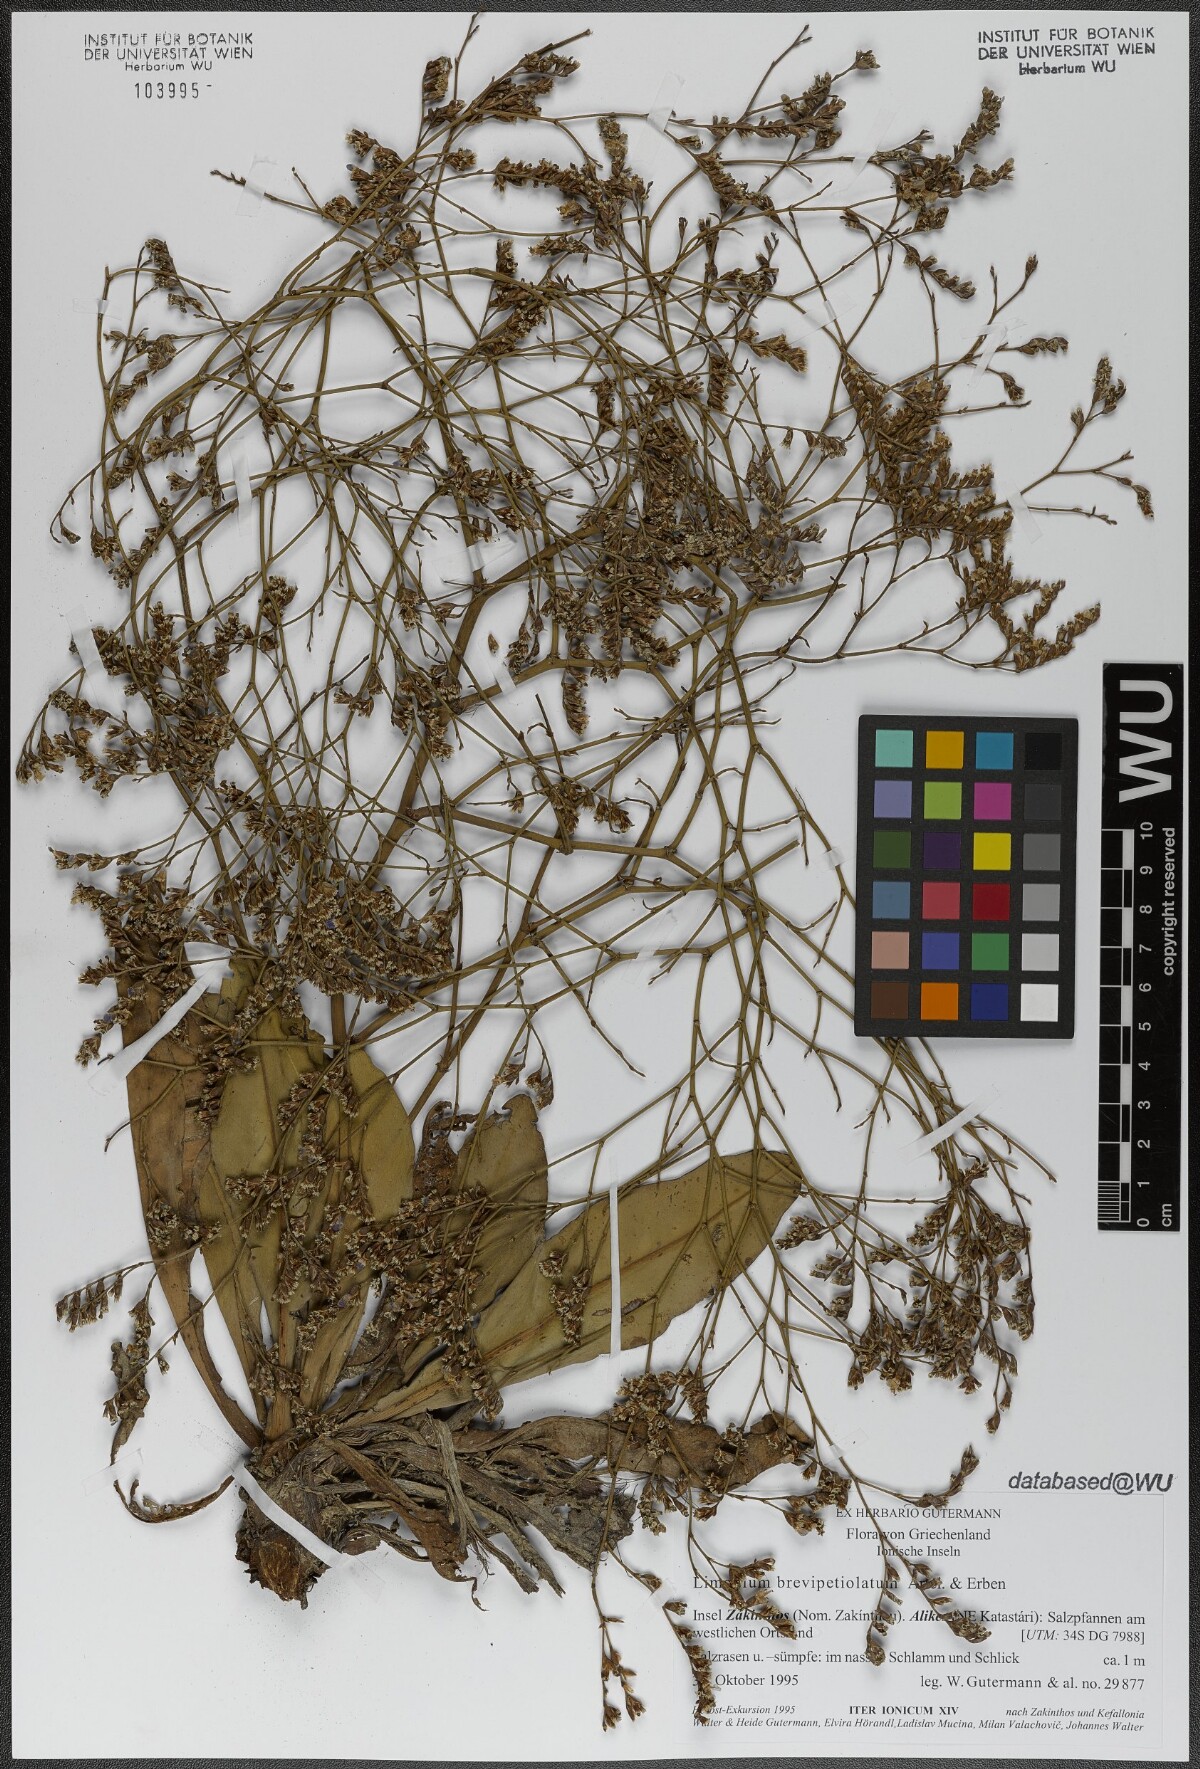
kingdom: Plantae
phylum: Tracheophyta
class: Magnoliopsida
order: Caryophyllales
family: Plumbaginaceae
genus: Limonium
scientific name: Limonium brevipetiolatum
